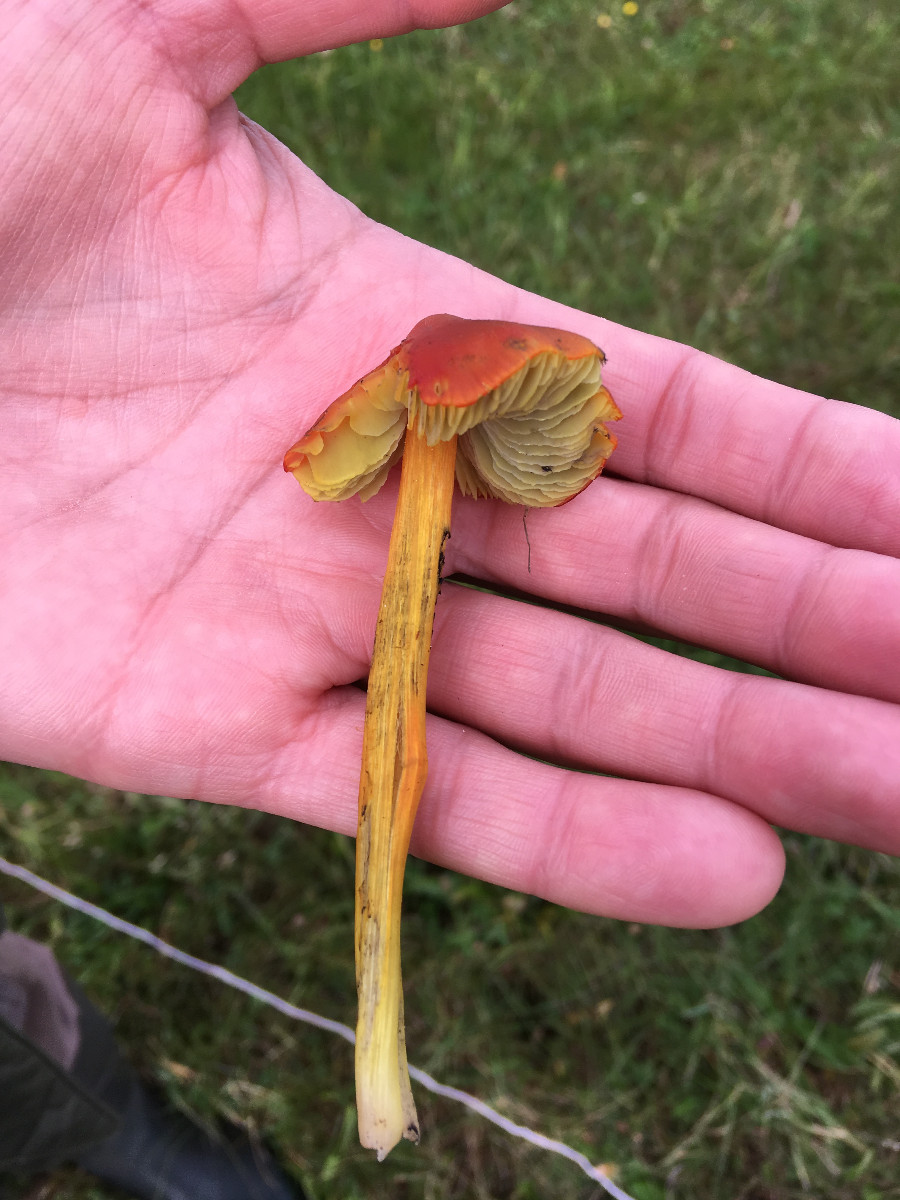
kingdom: Fungi
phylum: Basidiomycota
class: Agaricomycetes
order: Agaricales
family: Hygrophoraceae
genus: Hygrocybe
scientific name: Hygrocybe conica
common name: kegle-vokshat
